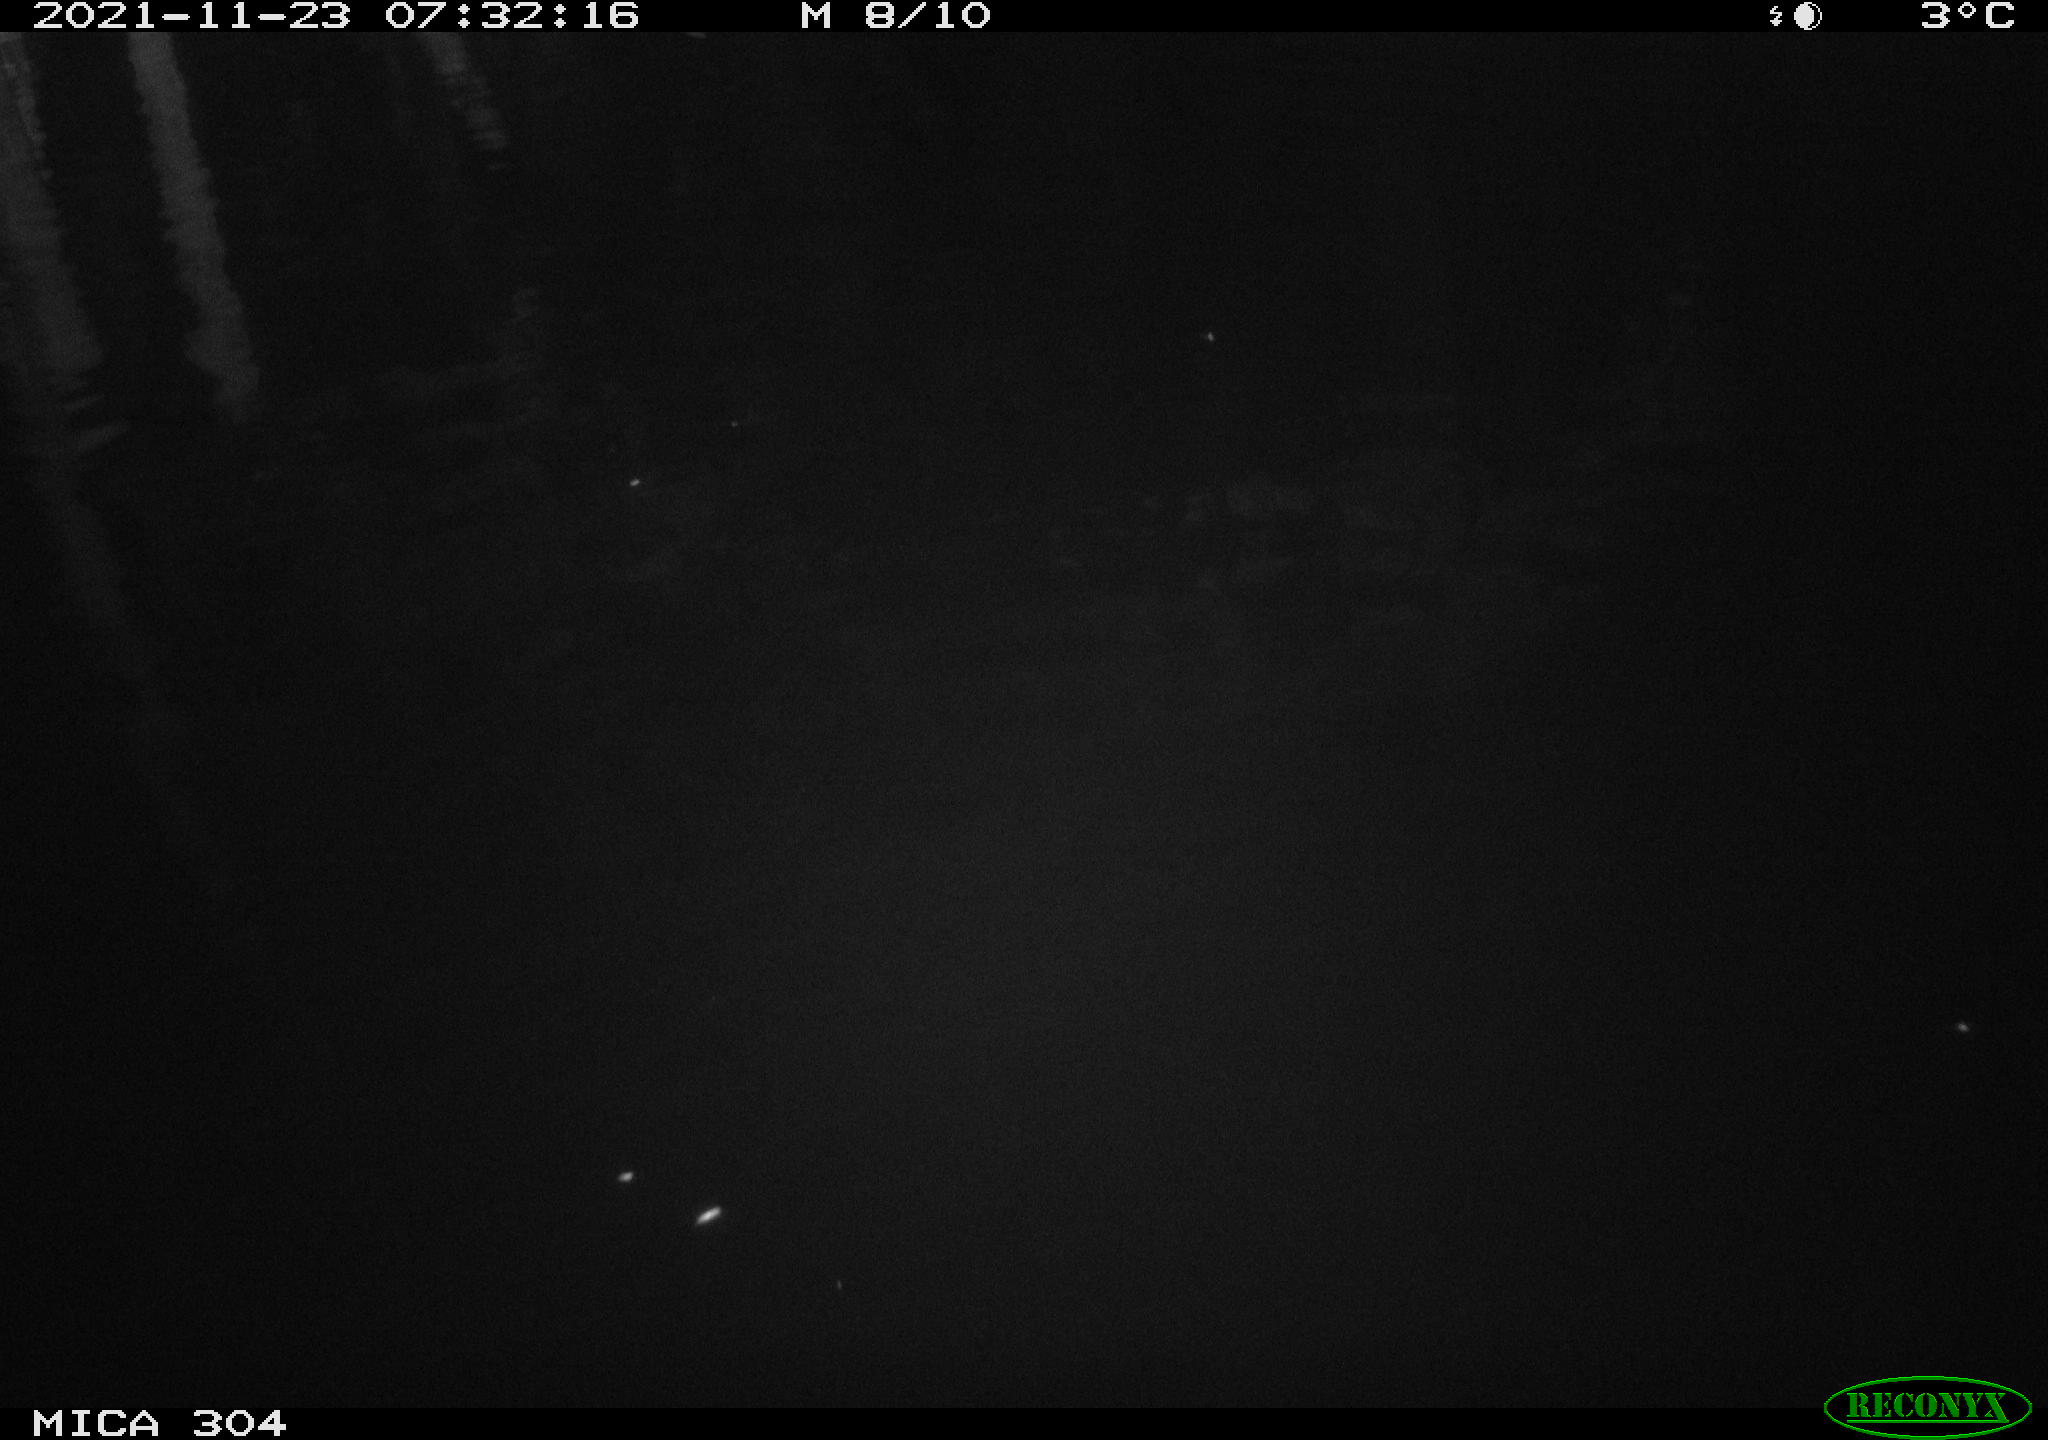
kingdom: Animalia
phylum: Chordata
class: Aves
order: Gruiformes
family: Rallidae
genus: Fulica
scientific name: Fulica atra
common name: Eurasian coot
